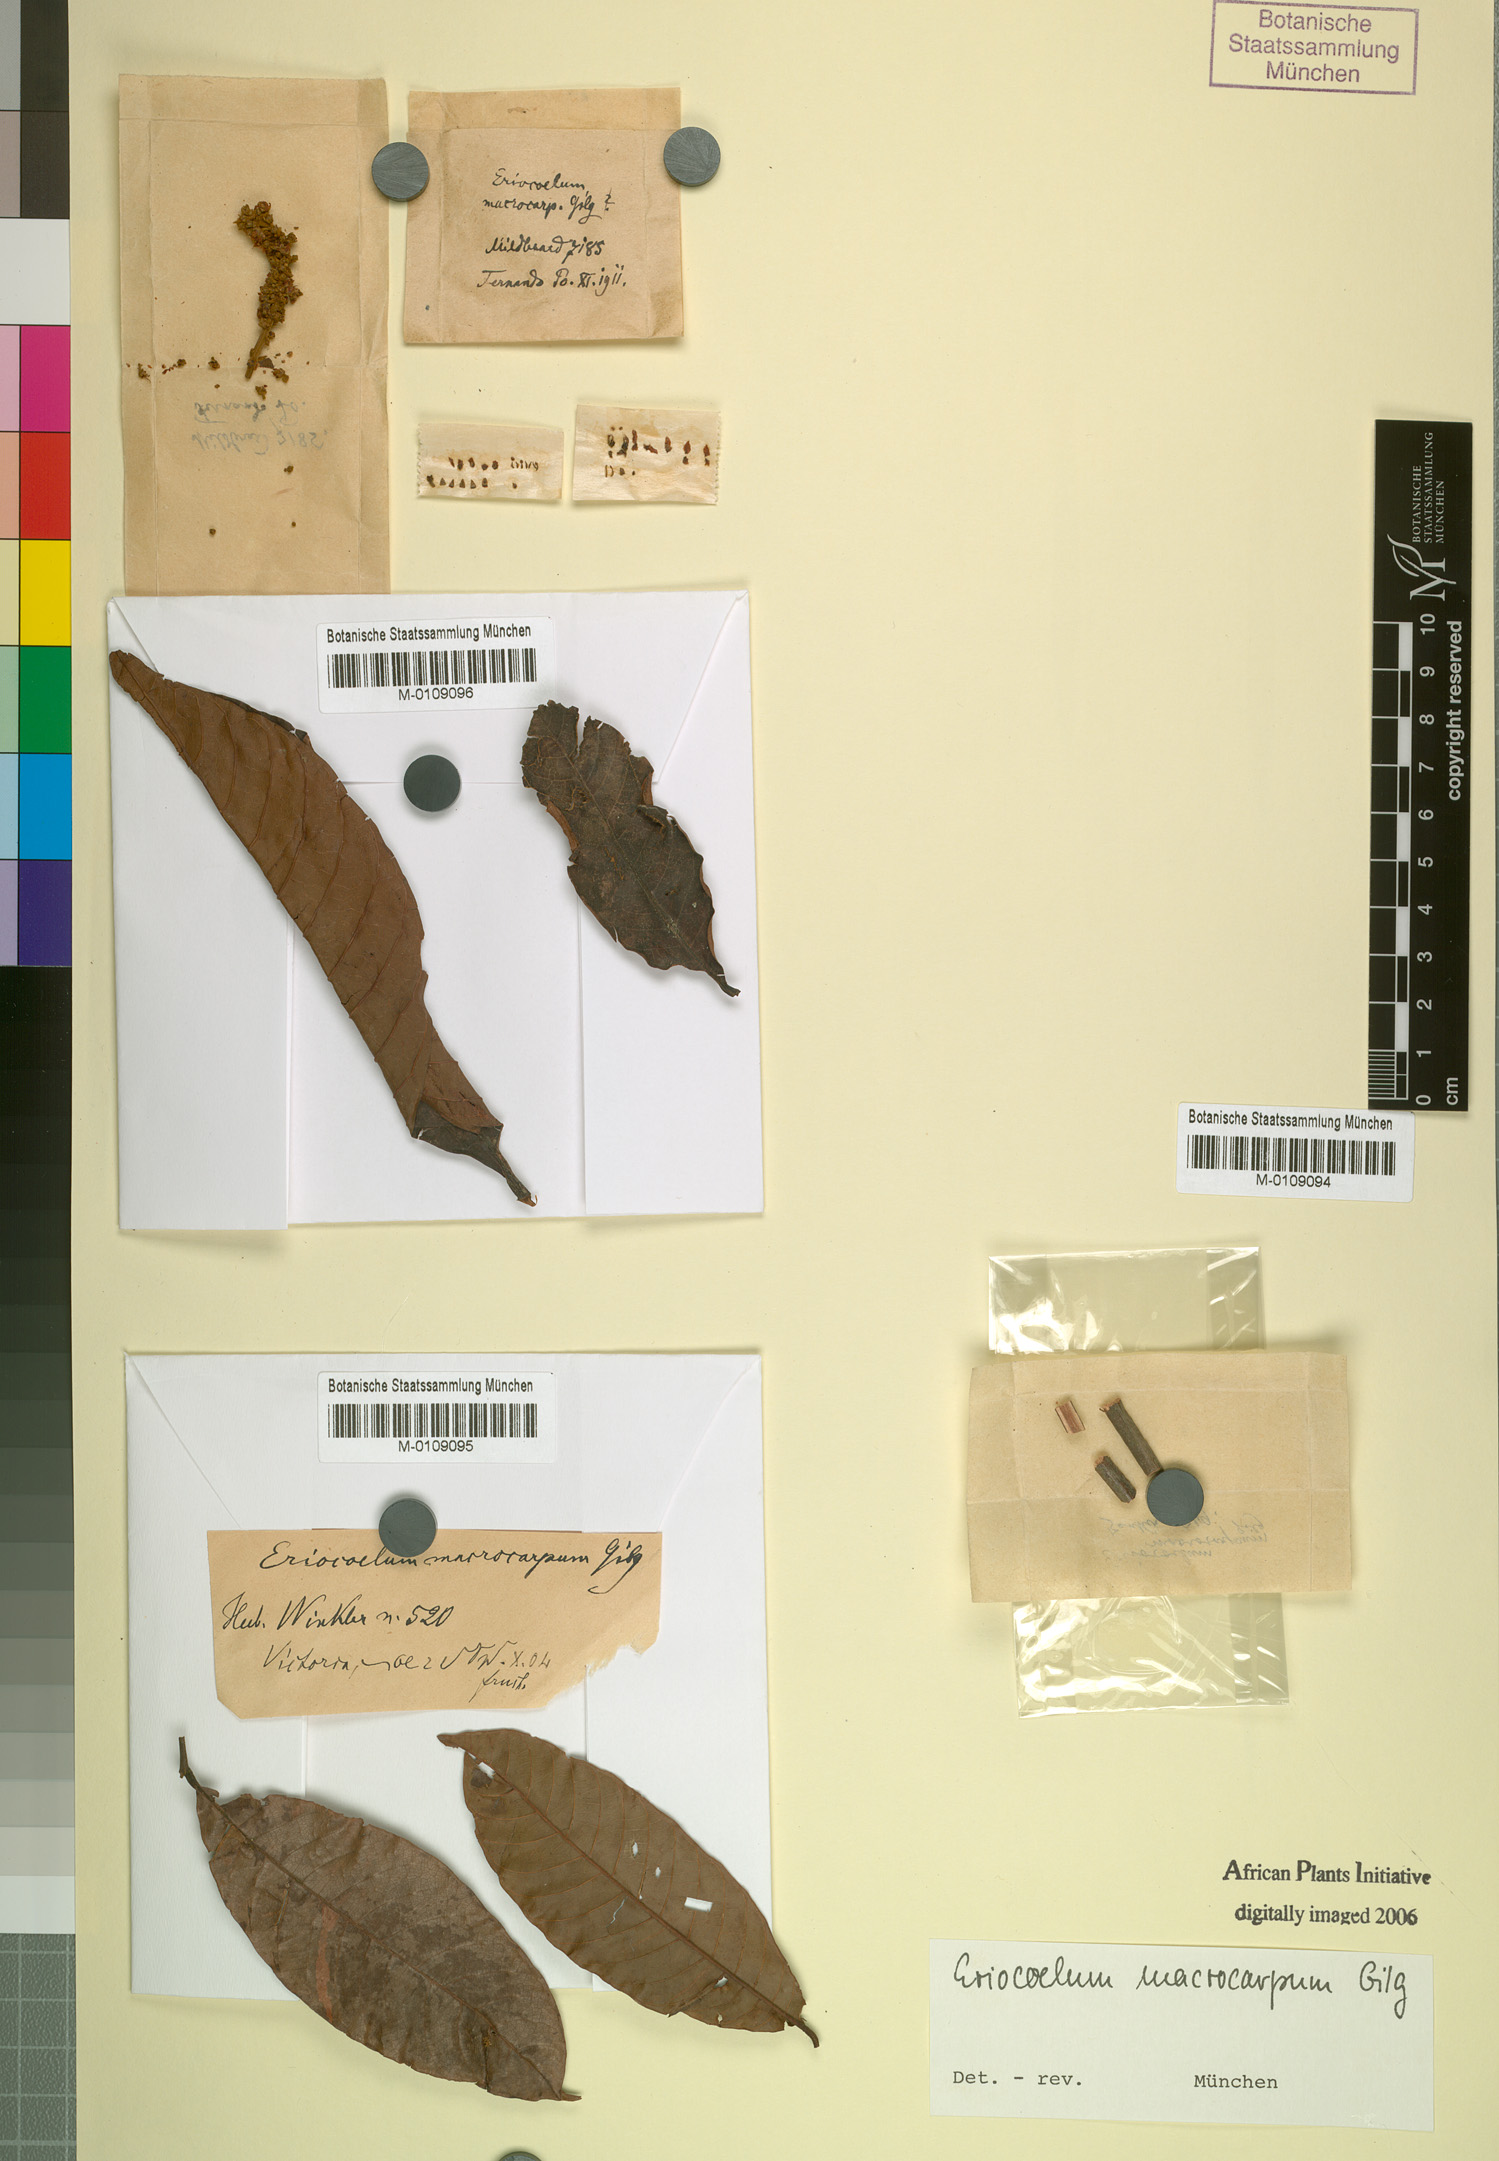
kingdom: Plantae
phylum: Tracheophyta
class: Magnoliopsida
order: Sapindales
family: Sapindaceae
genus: Eriocoelum
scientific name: Eriocoelum macrocarpum
